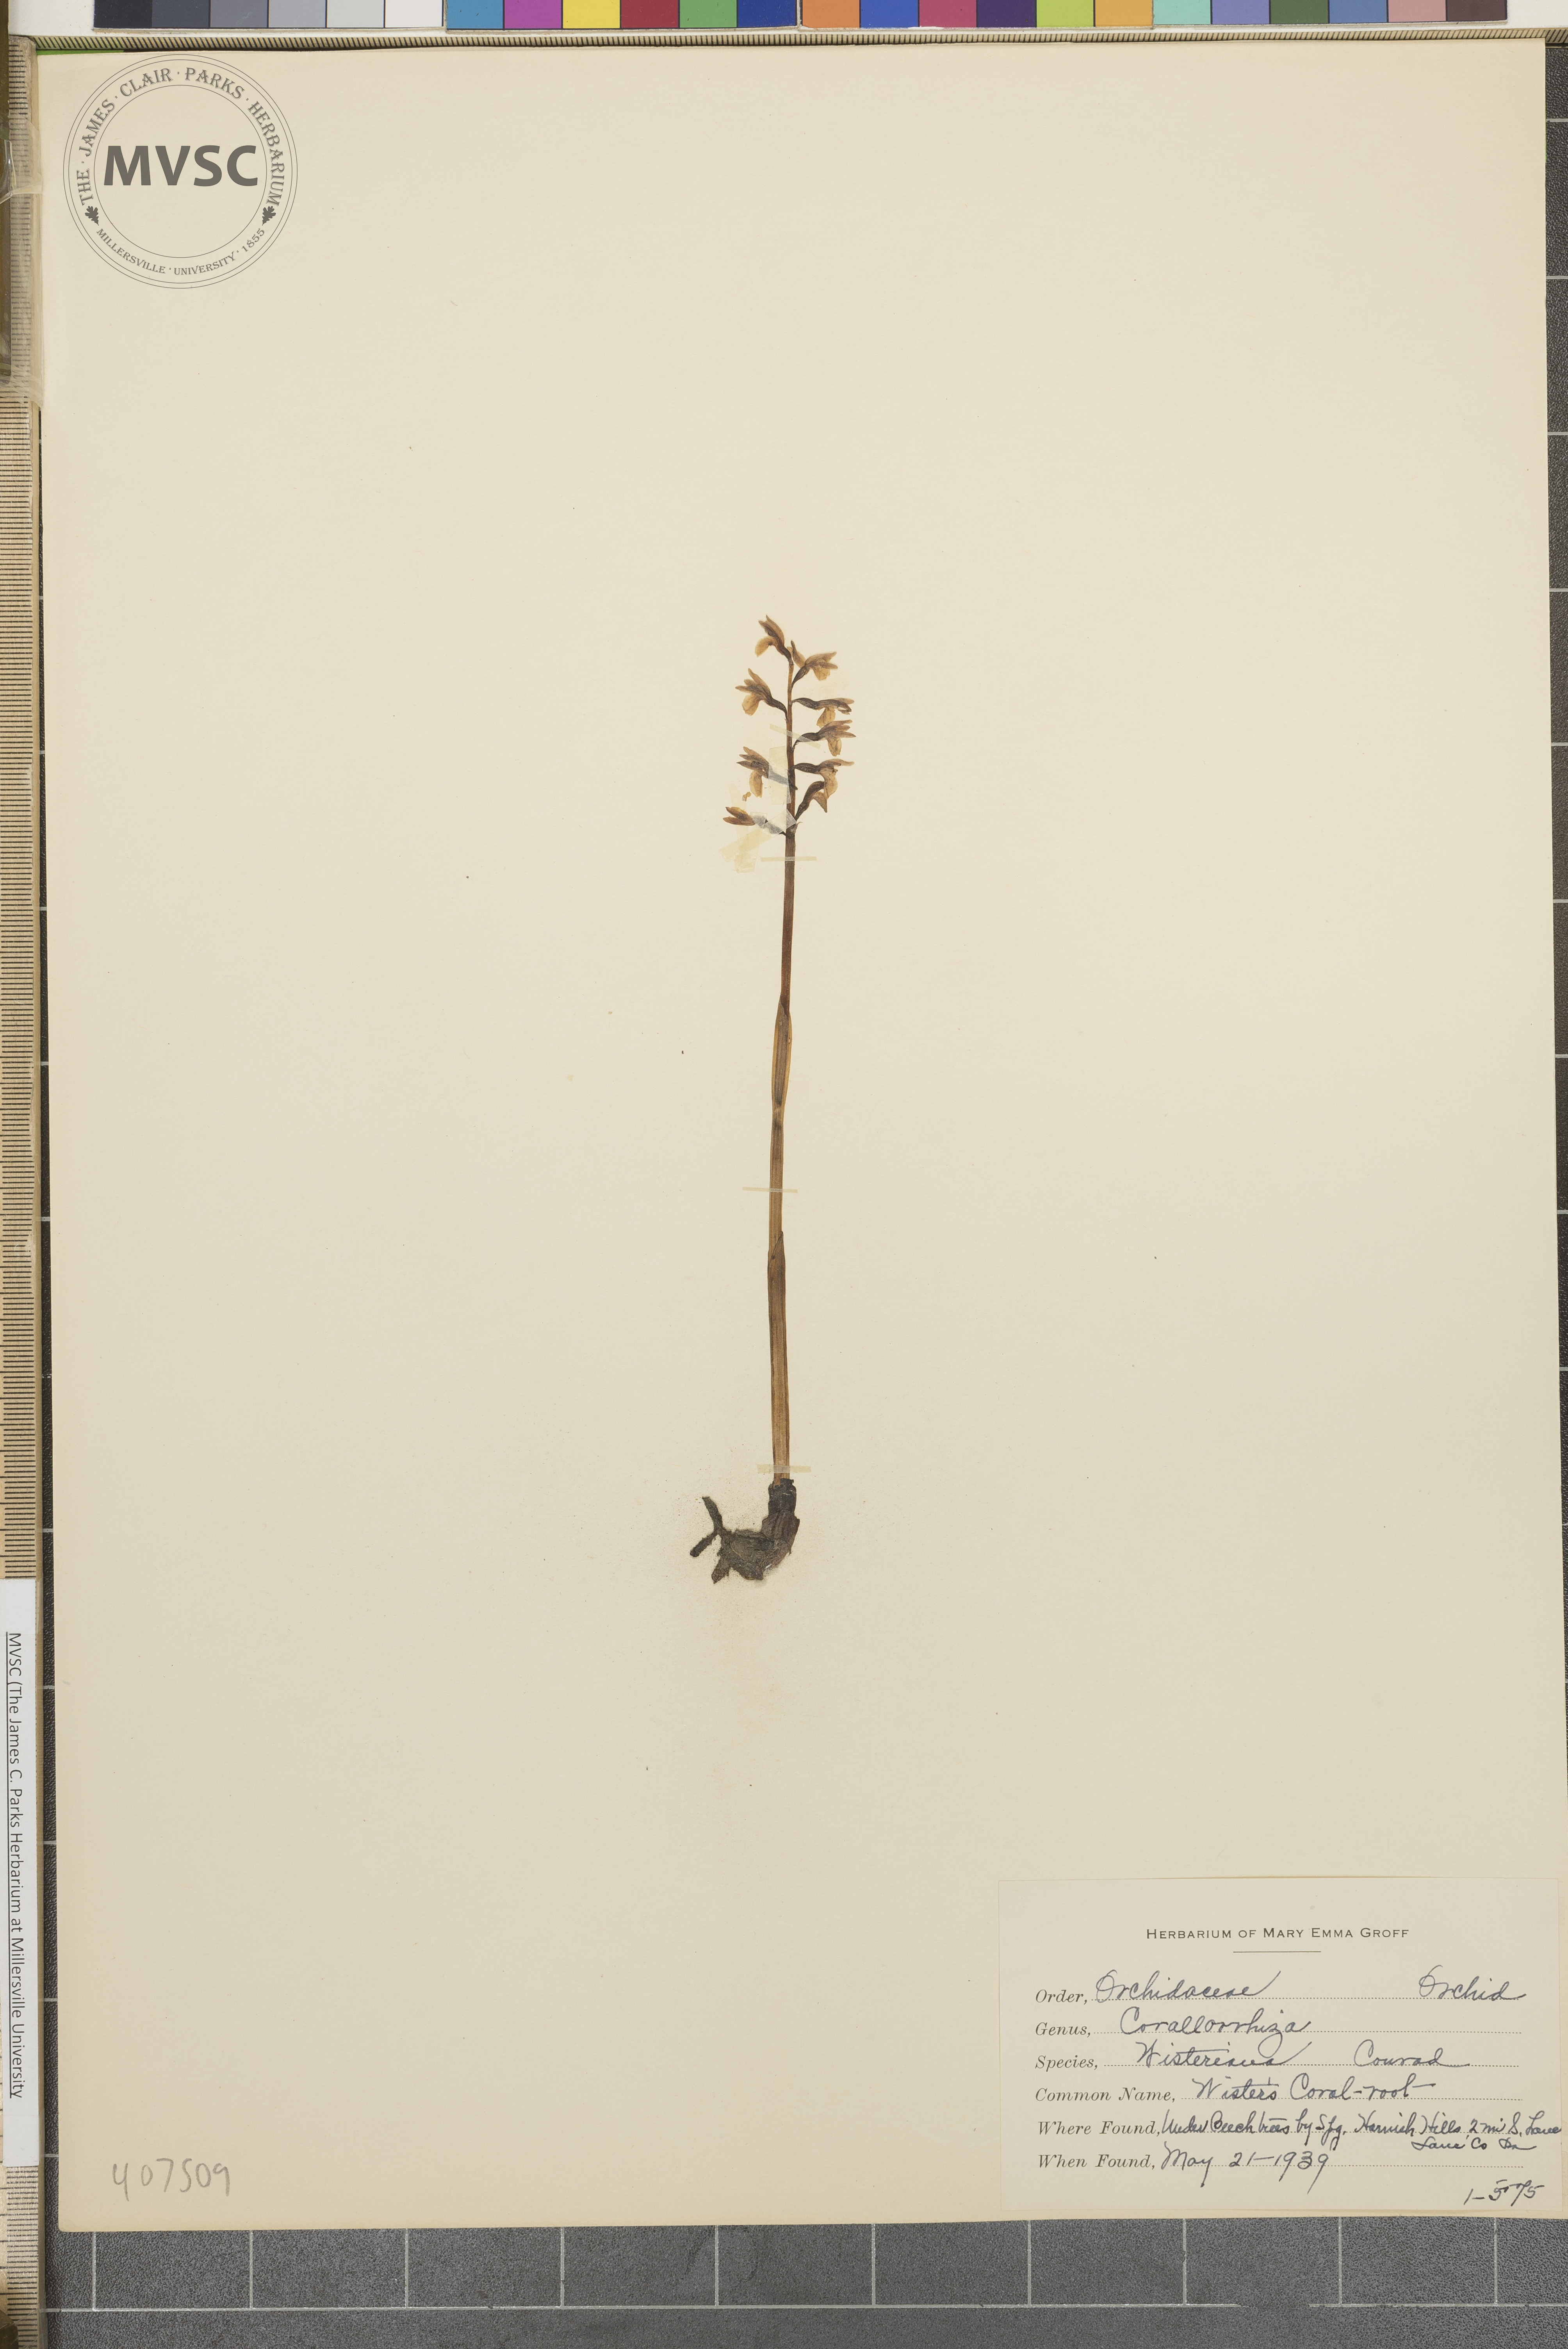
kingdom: Plantae
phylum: Tracheophyta
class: Liliopsida
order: Asparagales
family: Orchidaceae
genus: Corallorhiza
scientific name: Corallorhiza wisteriana
